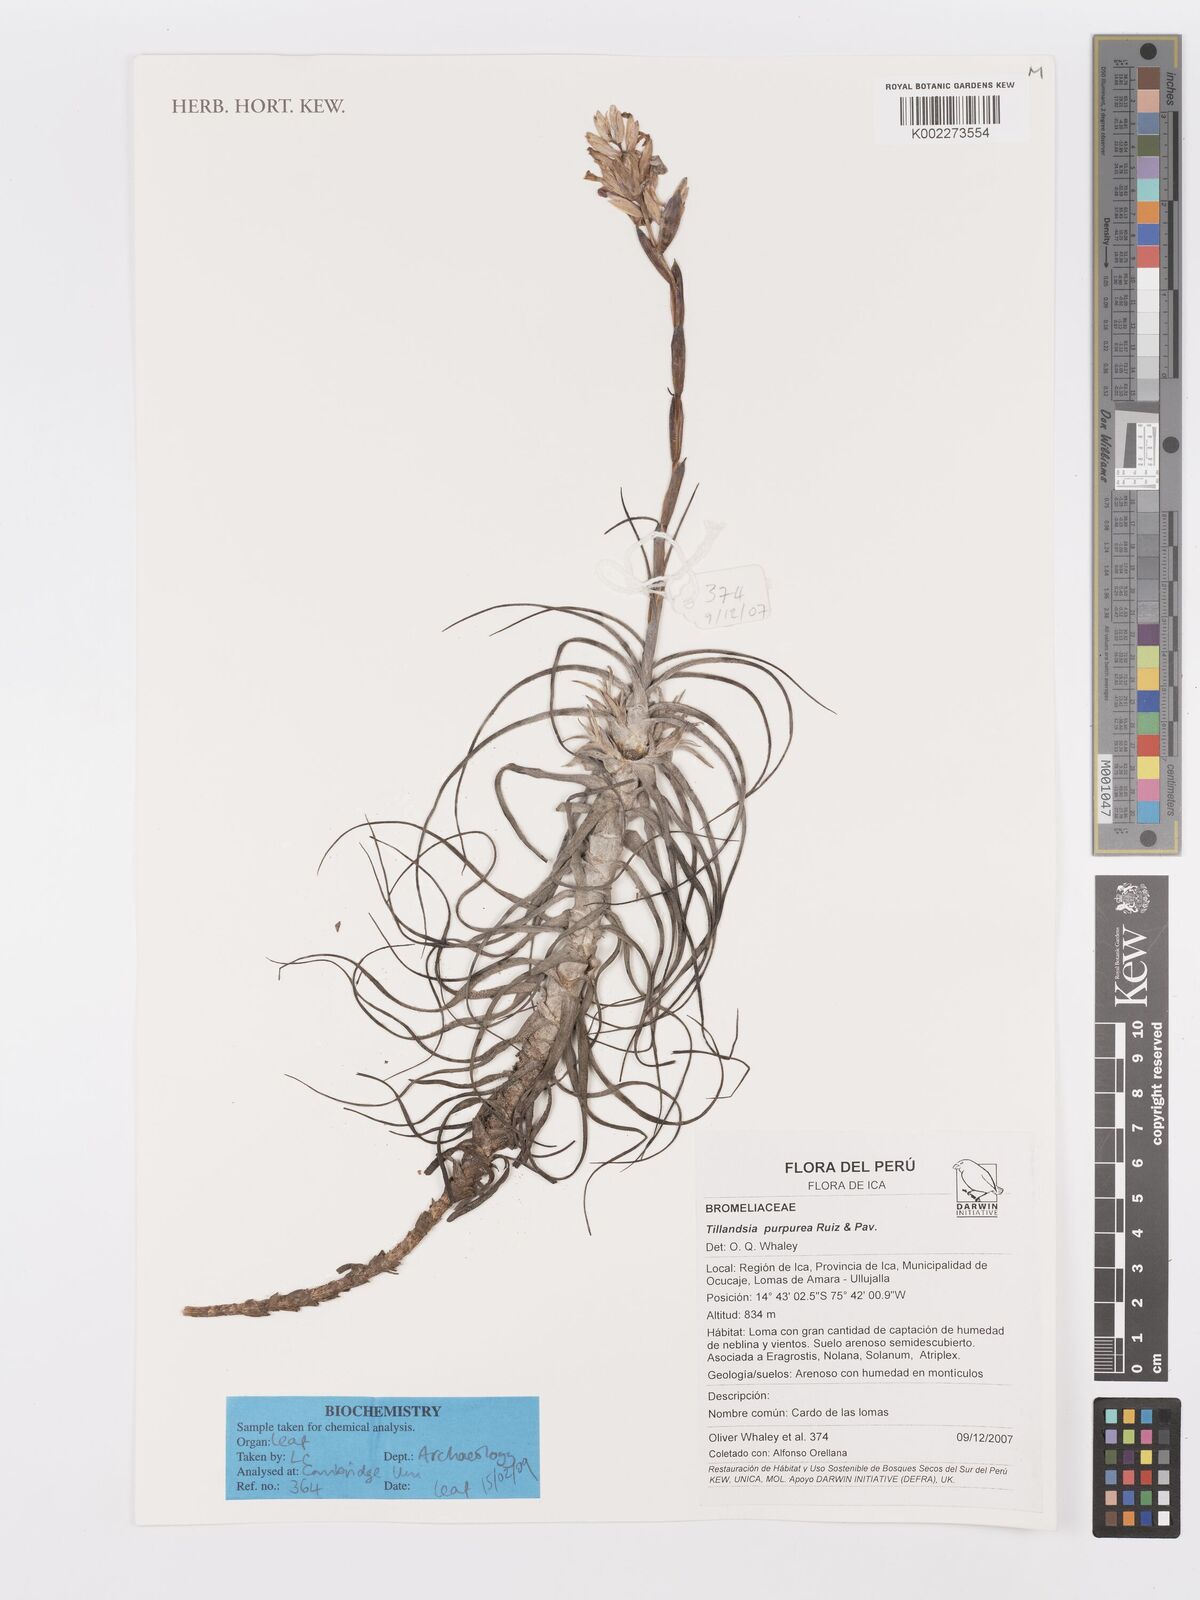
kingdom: Plantae
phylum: Tracheophyta
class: Liliopsida
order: Poales
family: Bromeliaceae
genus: Tillandsia
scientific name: Tillandsia purpurea
